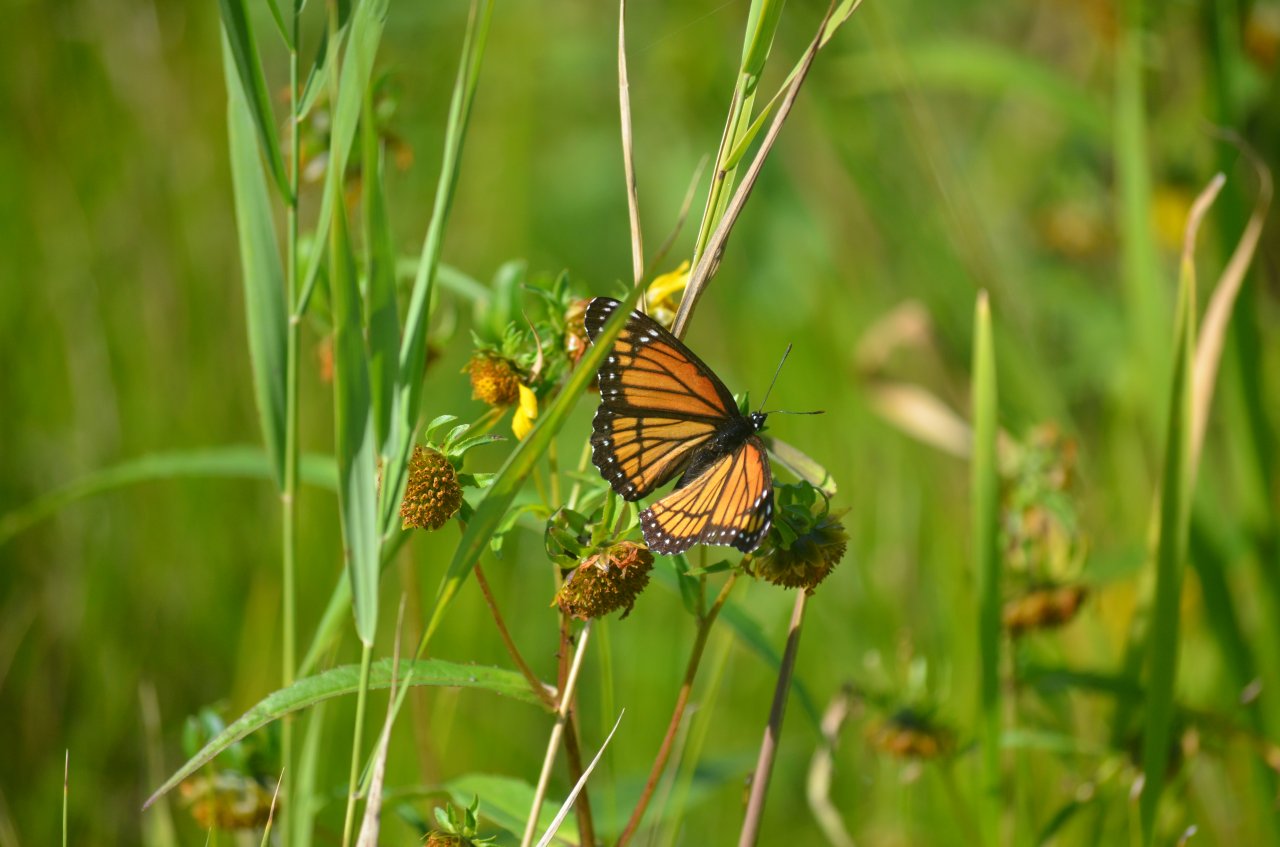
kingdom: Animalia
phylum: Arthropoda
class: Insecta
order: Lepidoptera
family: Nymphalidae
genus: Limenitis
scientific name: Limenitis archippus
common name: Viceroy
